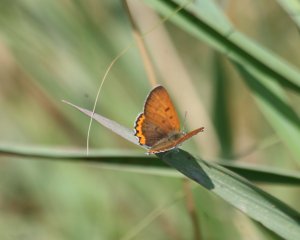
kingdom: Animalia
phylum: Arthropoda
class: Insecta
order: Lepidoptera
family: Sesiidae
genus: Sesia
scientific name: Sesia Lycaena hyllus
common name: Bronze Copper
